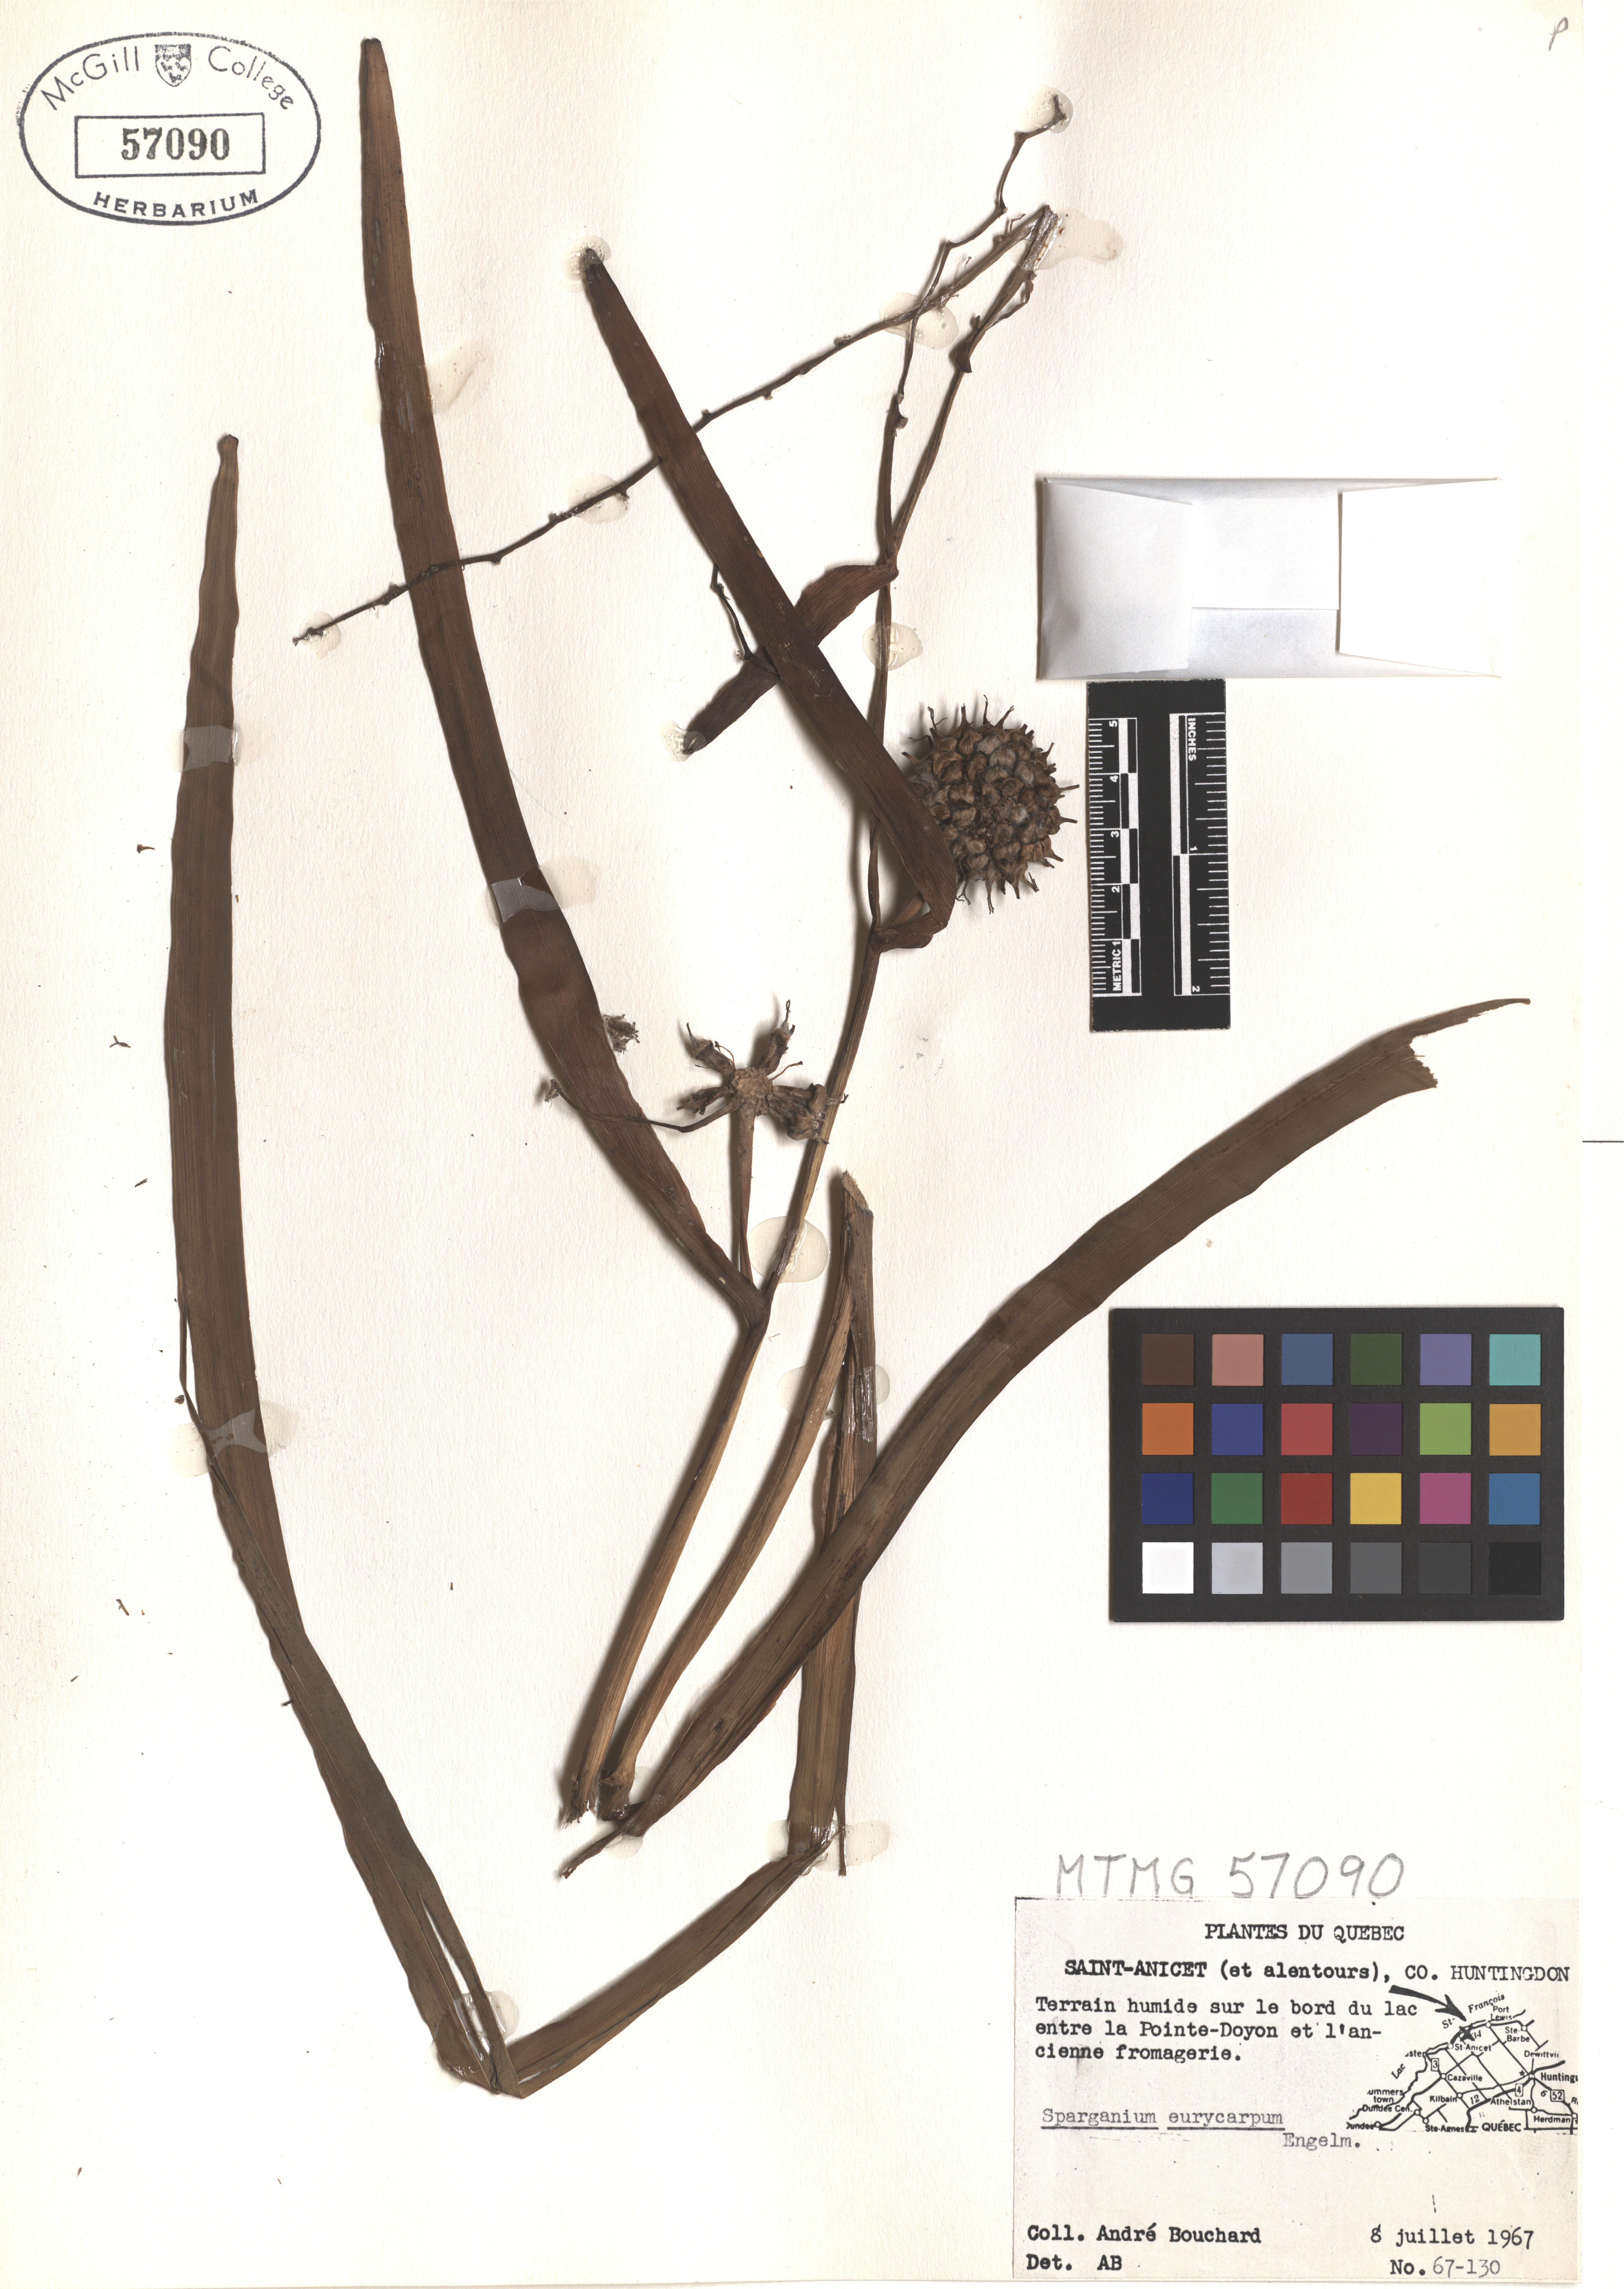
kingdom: Plantae
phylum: Tracheophyta
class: Liliopsida
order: Poales
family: Typhaceae
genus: Sparganium
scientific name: Sparganium eurycarpum
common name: Broad-fruited burreed
